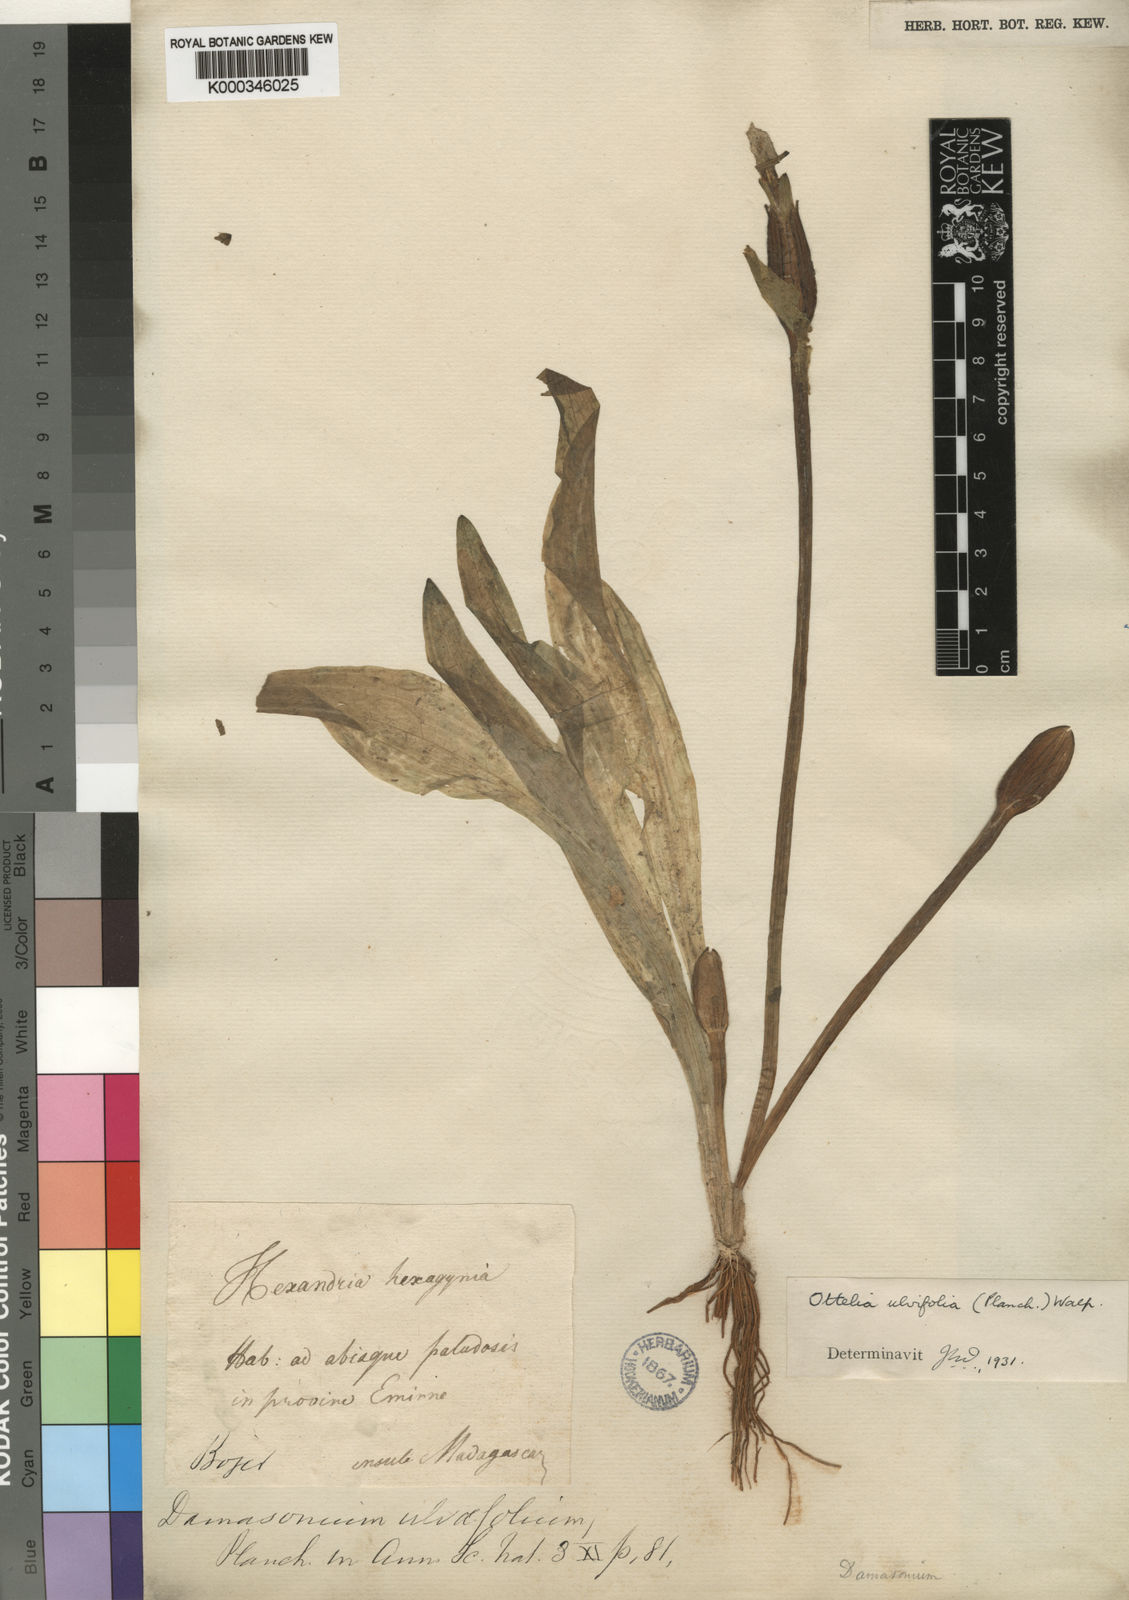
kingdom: Plantae
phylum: Tracheophyta
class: Liliopsida
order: Alismatales
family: Hydrocharitaceae
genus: Ottelia
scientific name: Ottelia ulvifolia
